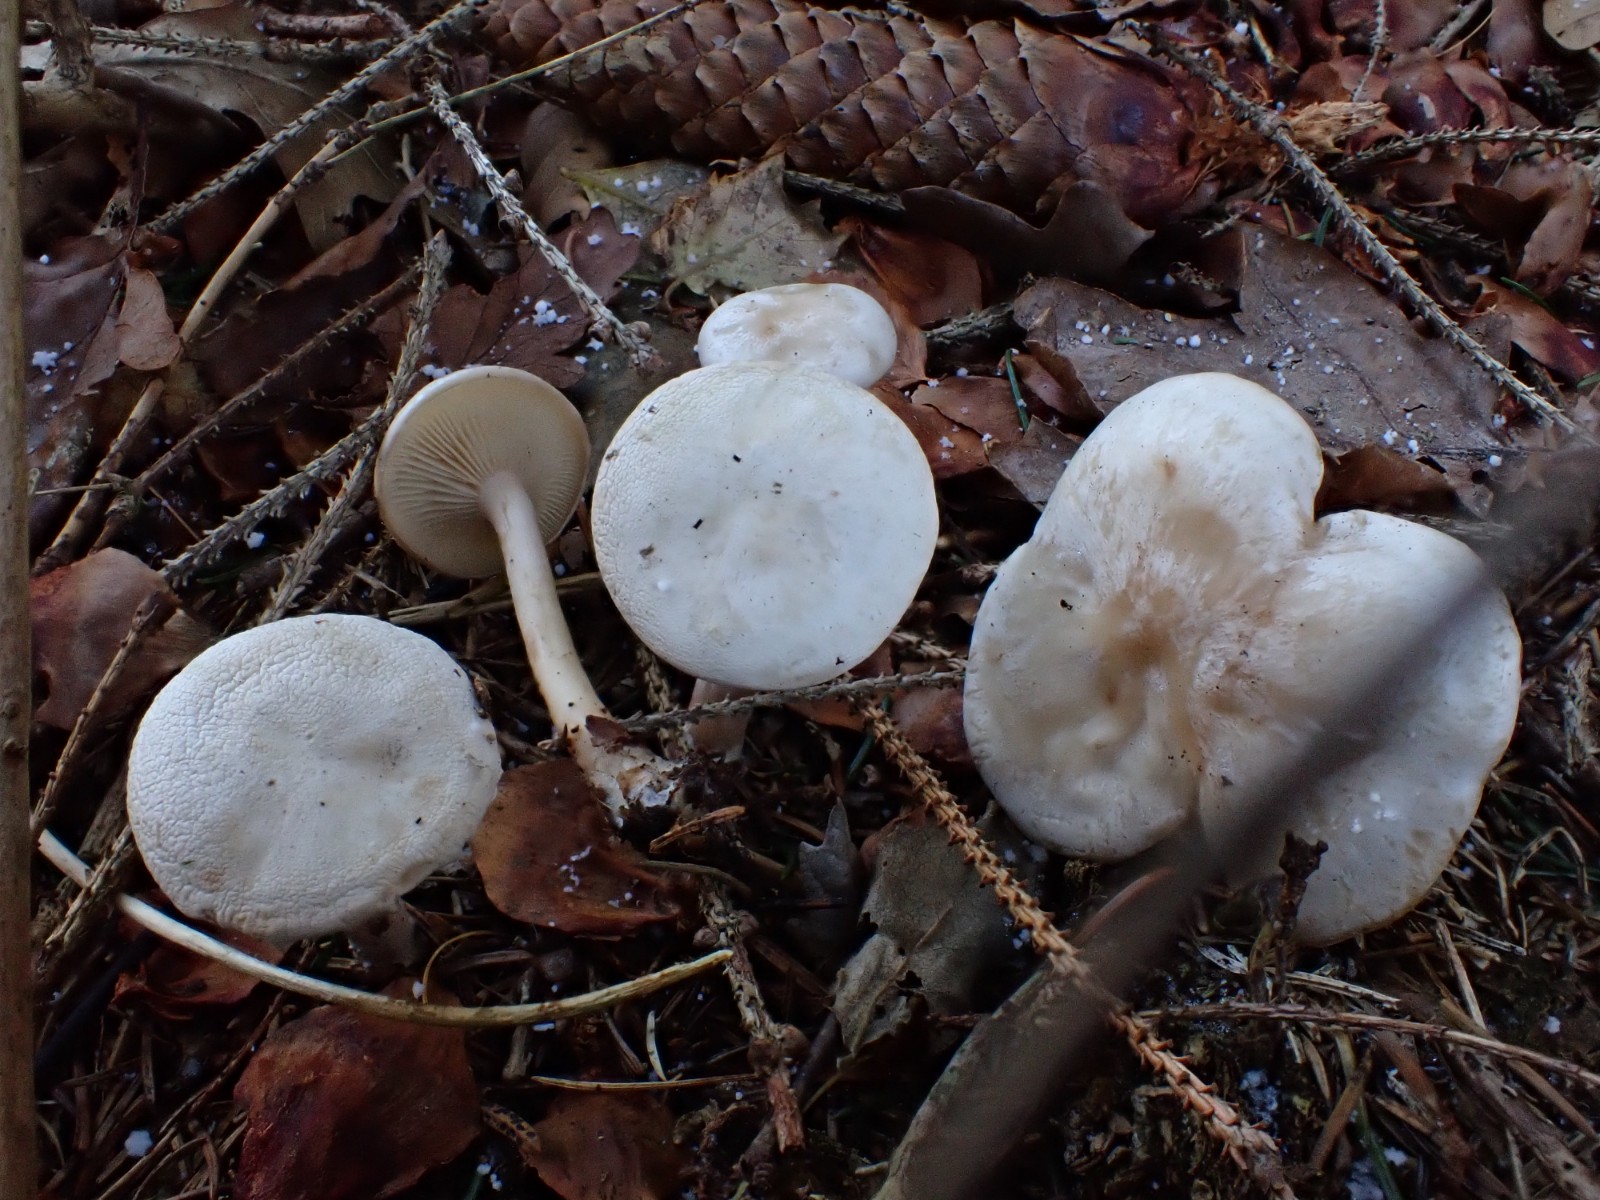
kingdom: Fungi
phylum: Basidiomycota
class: Agaricomycetes
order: Agaricales
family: Tricholomataceae
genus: Leucocybe
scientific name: Leucocybe candicans
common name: kridt-tragthat
